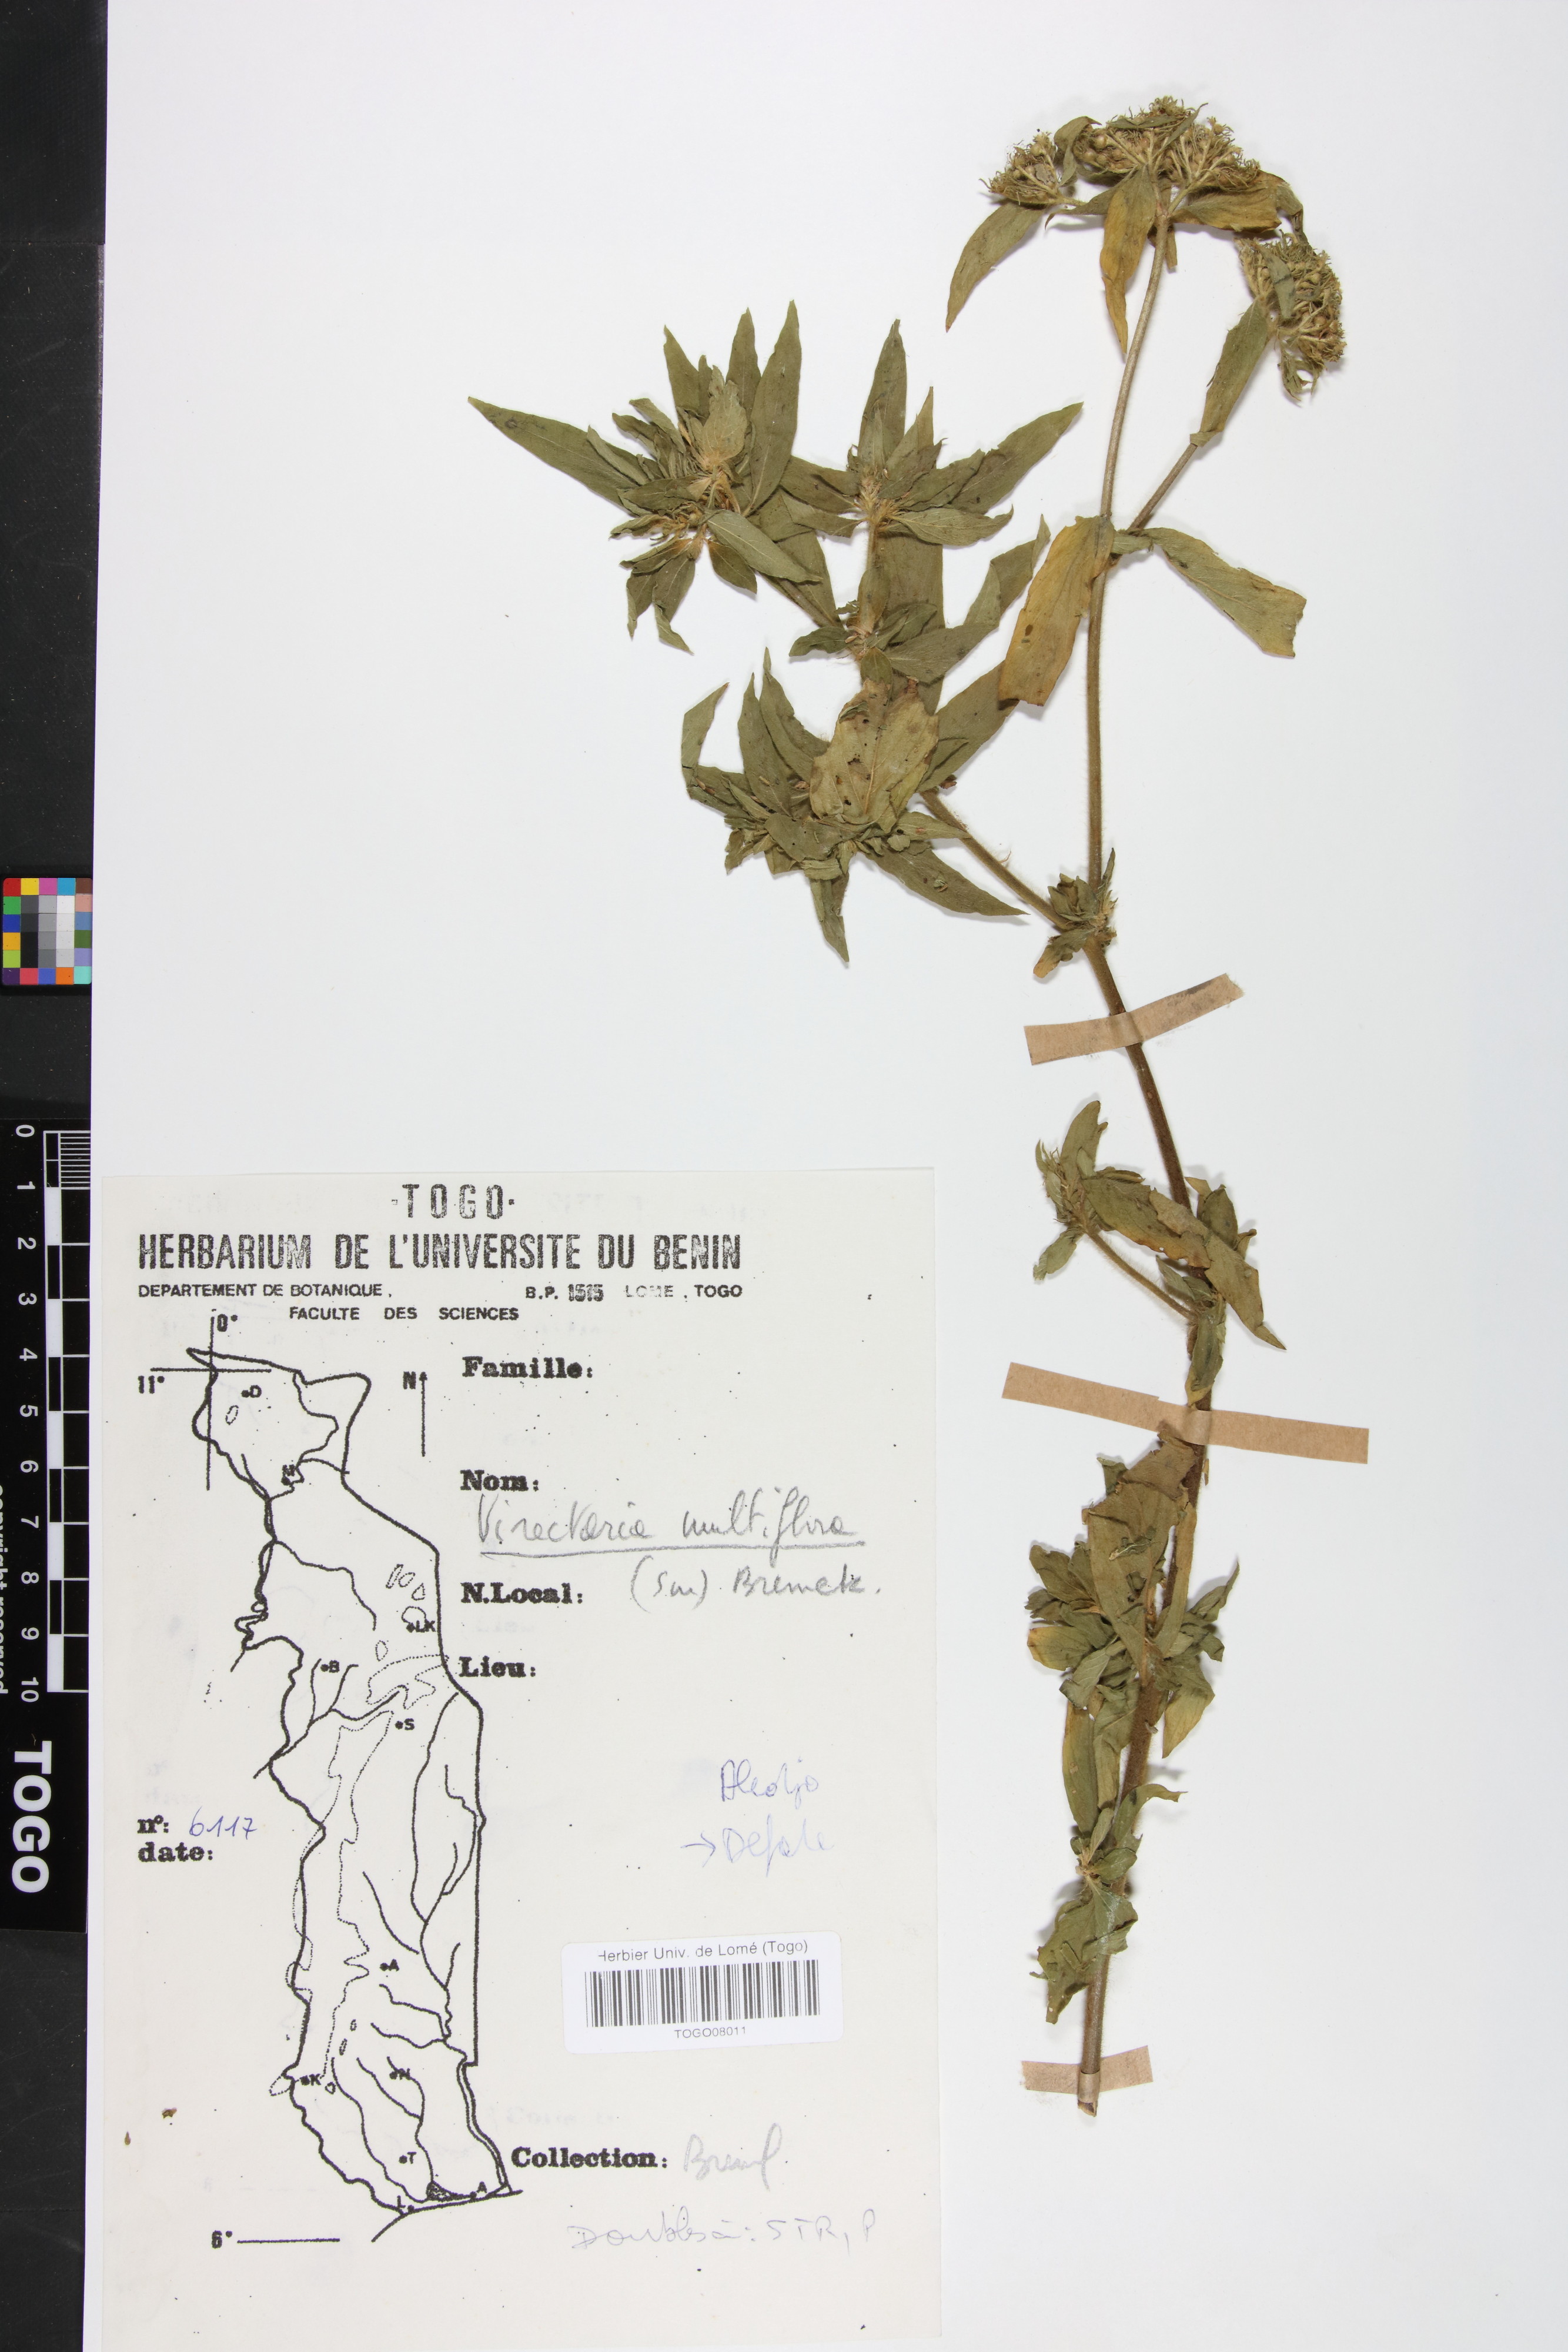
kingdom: Plantae
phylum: Tracheophyta
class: Magnoliopsida
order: Gentianales
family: Rubiaceae
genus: Virectaria
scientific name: Virectaria multiflora
